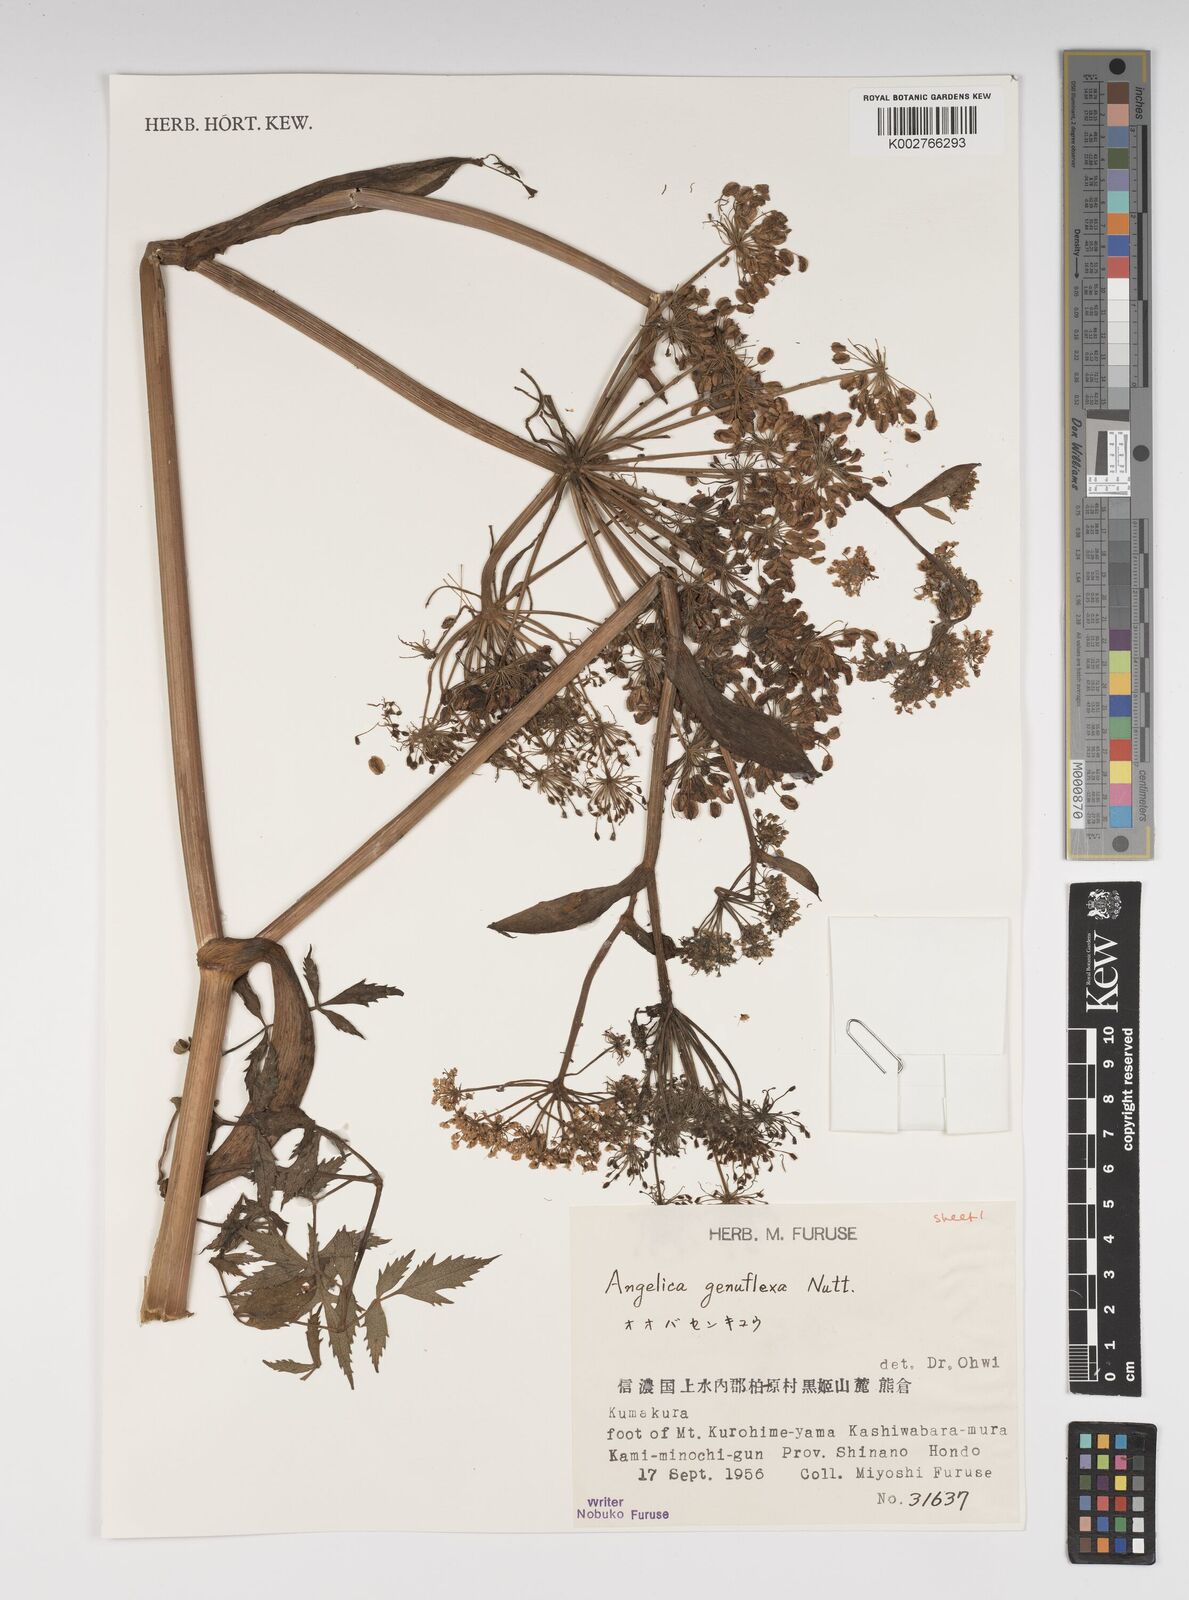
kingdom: Plantae
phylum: Tracheophyta
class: Magnoliopsida
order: Apiales
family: Apiaceae
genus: Angelica
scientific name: Angelica genuflexa
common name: Kneeling angelica
